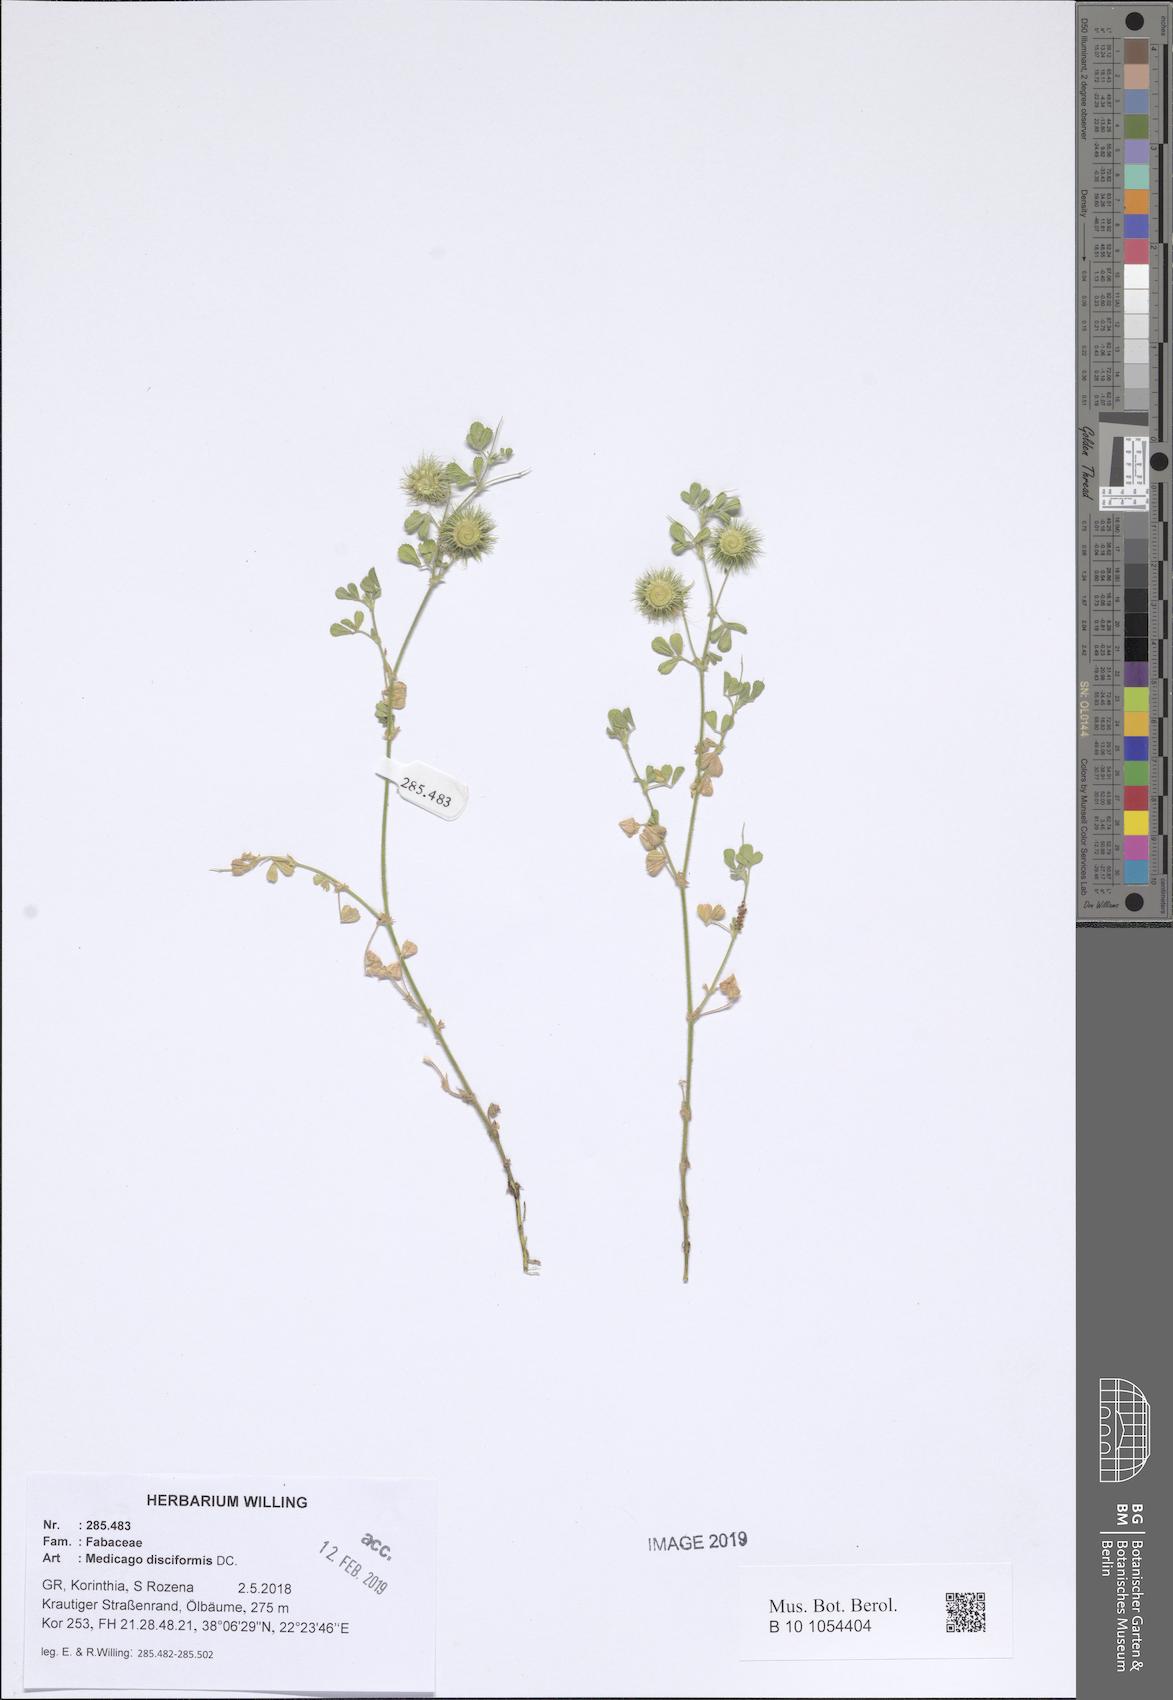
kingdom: Plantae
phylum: Tracheophyta
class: Magnoliopsida
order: Fabales
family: Fabaceae
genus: Medicago
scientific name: Medicago disciformis
